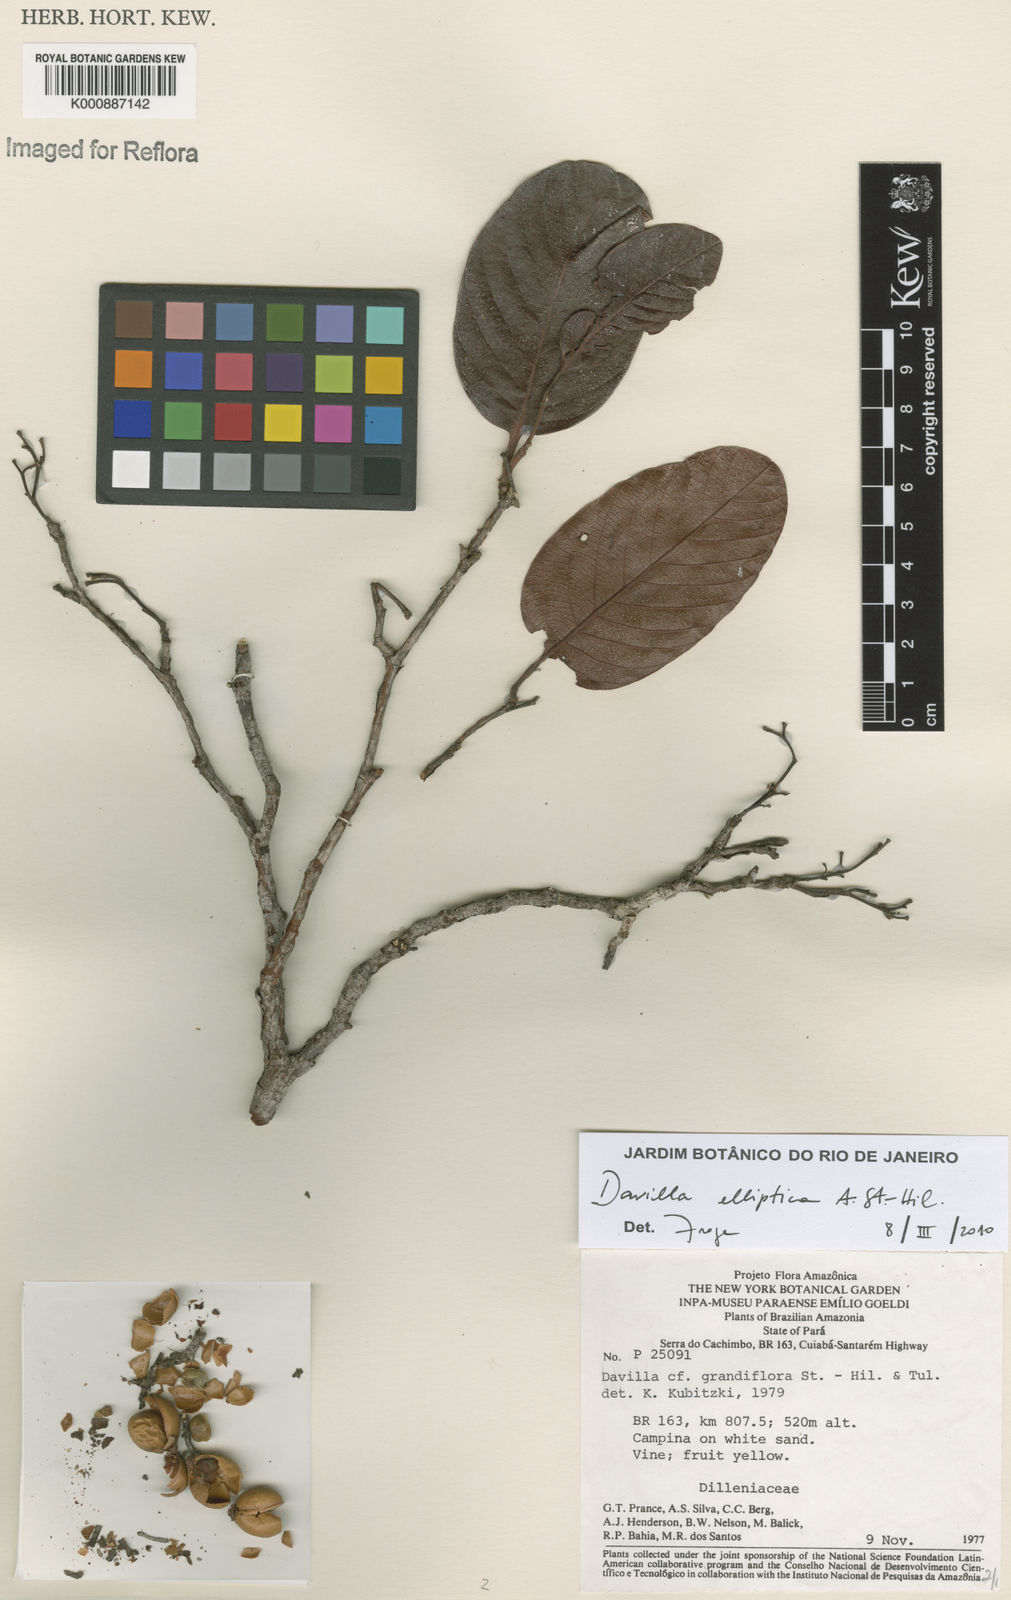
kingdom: Plantae
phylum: Tracheophyta
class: Magnoliopsida
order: Dilleniales
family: Dilleniaceae
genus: Davilla
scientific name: Davilla elliptica
